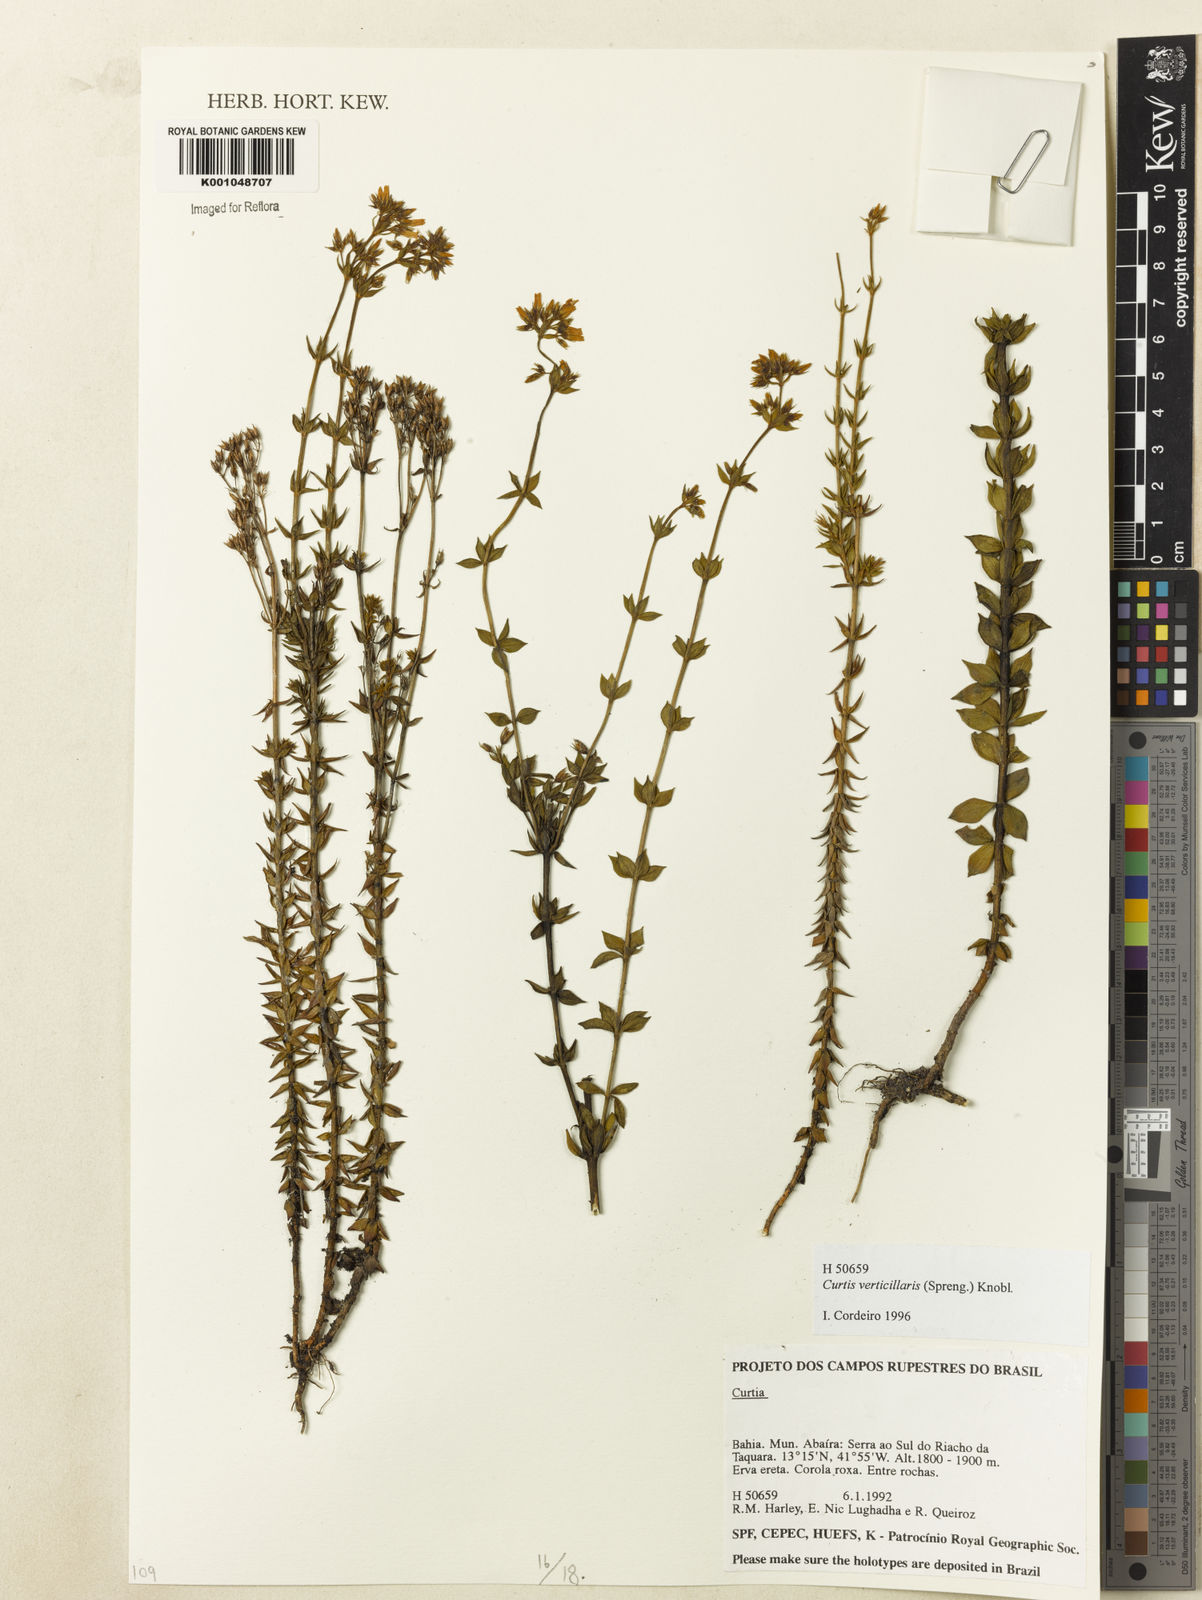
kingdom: Plantae
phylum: Tracheophyta
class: Magnoliopsida
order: Gentianales
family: Gentianaceae
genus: Curtia
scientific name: Curtia verticillaris
